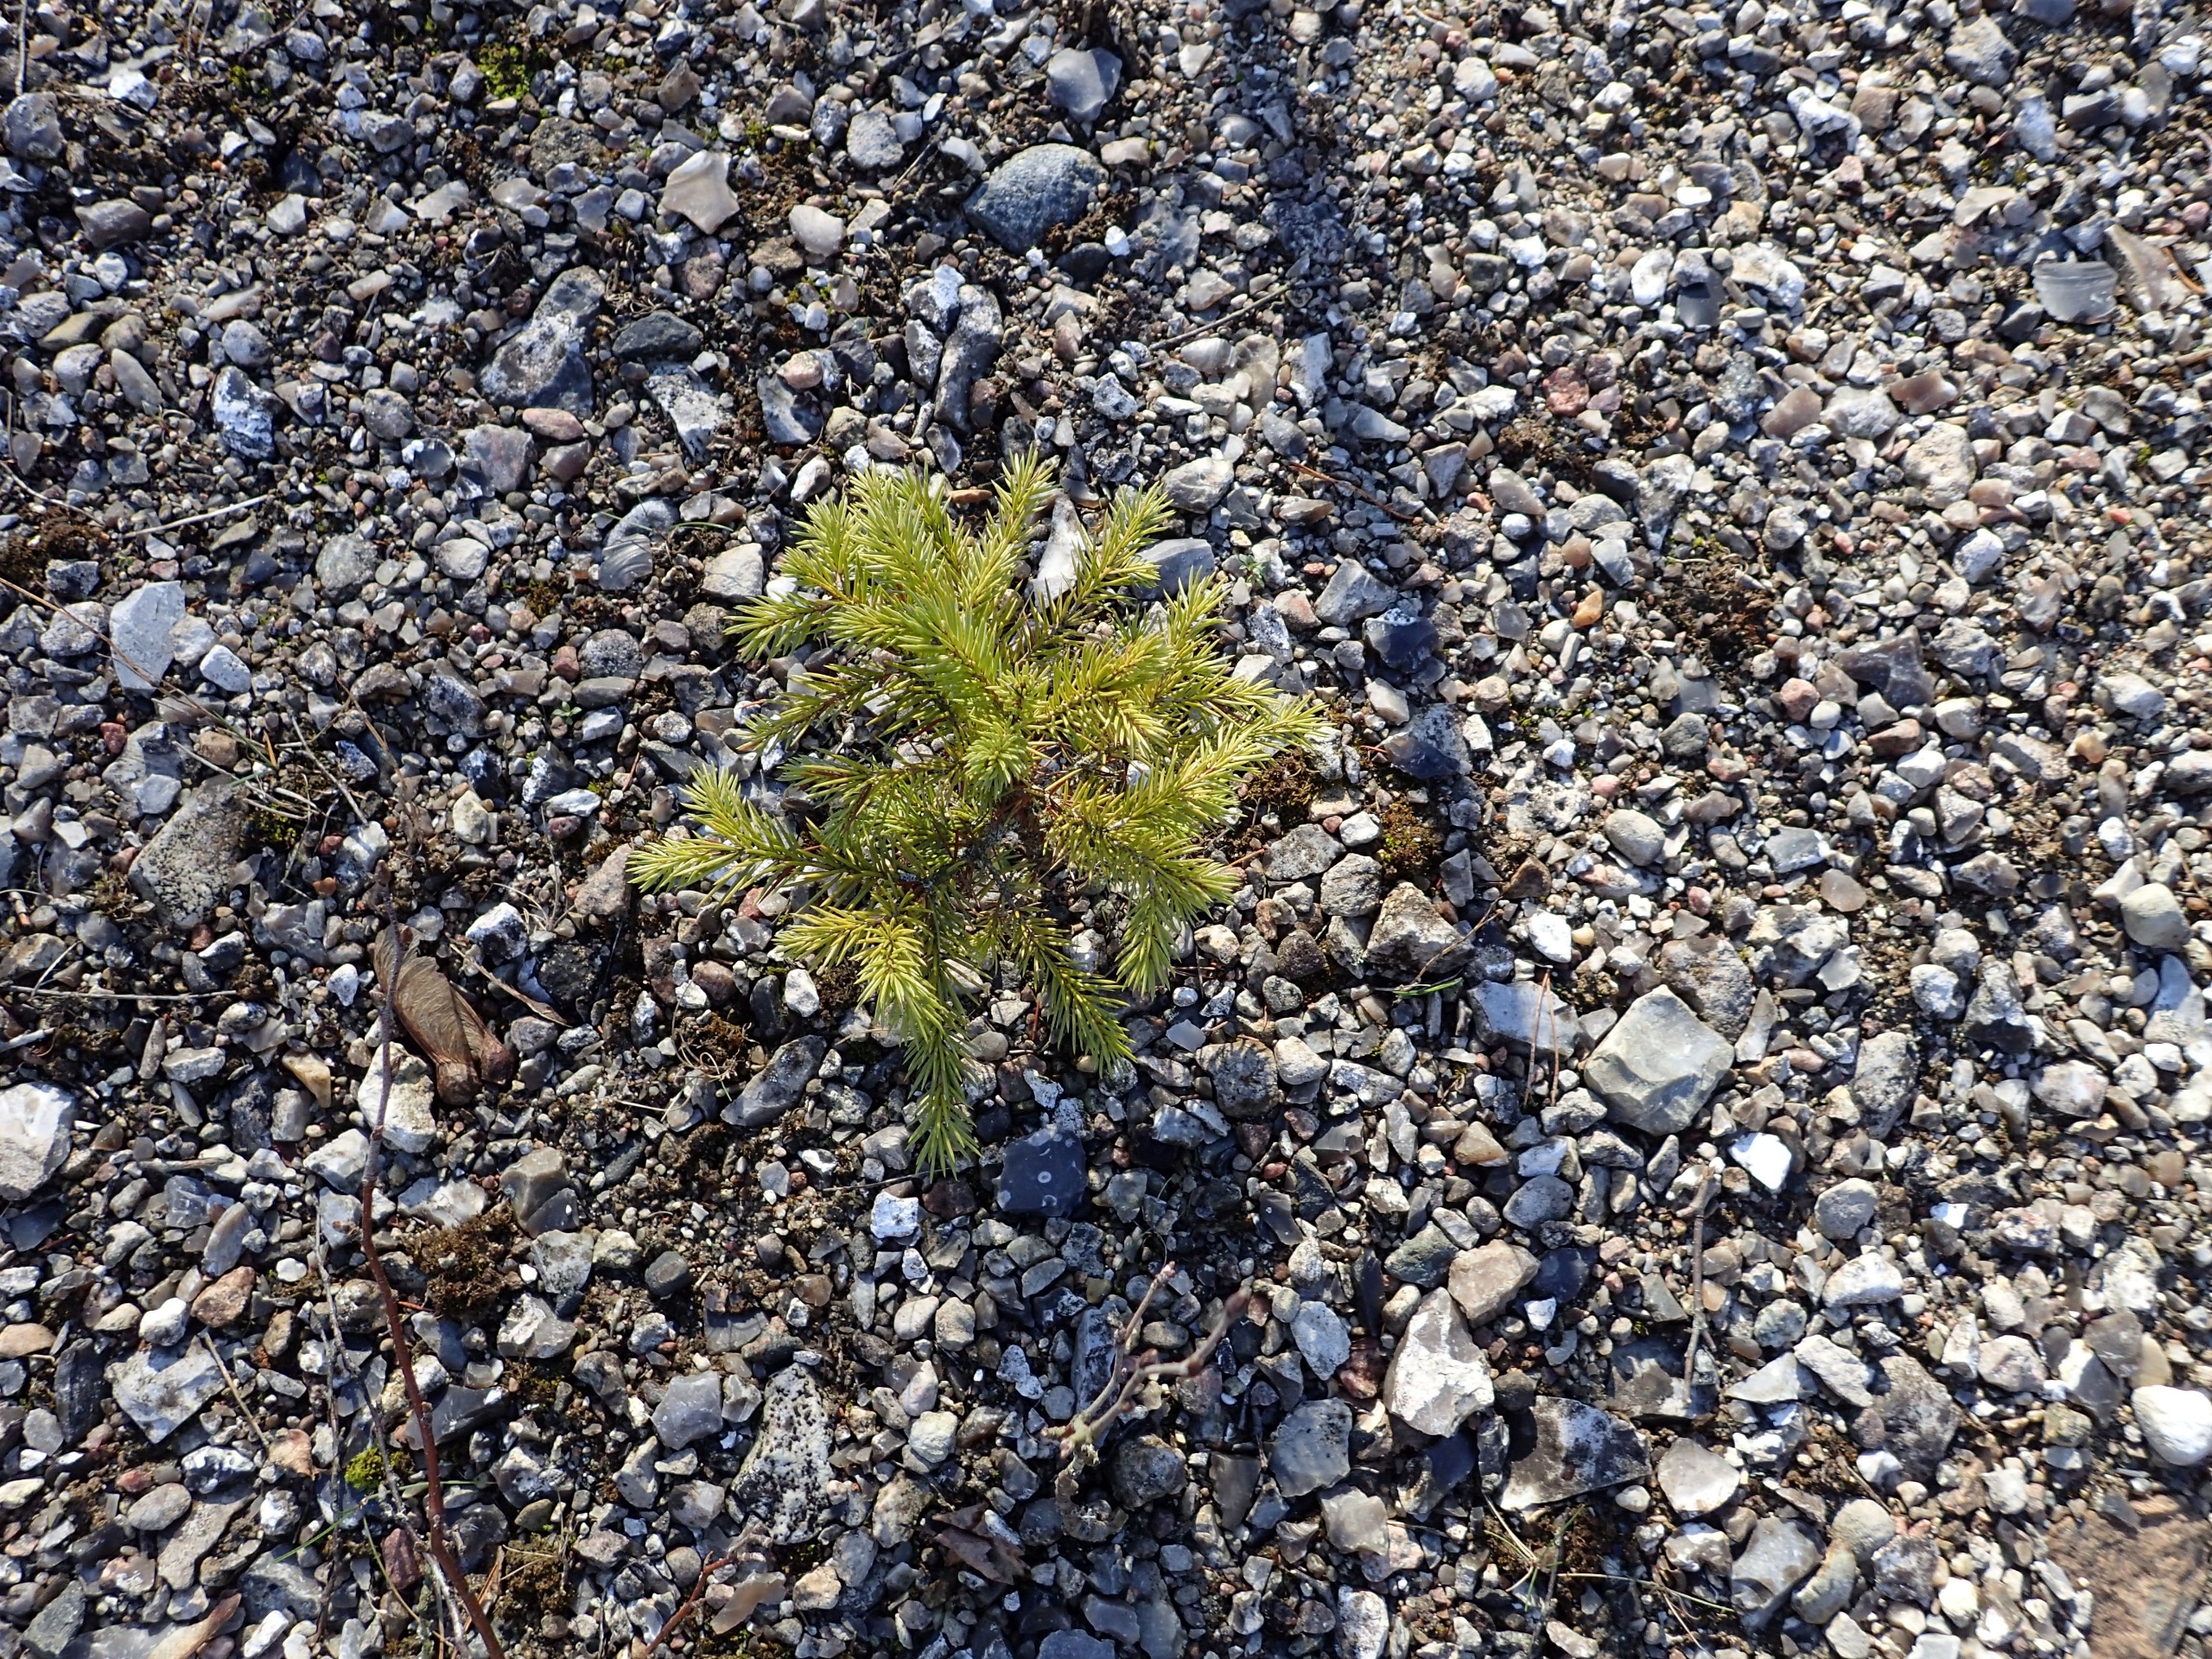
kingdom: Plantae
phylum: Tracheophyta
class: Pinopsida
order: Pinales
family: Pinaceae
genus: Picea
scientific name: Picea abies
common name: Rød-gran
